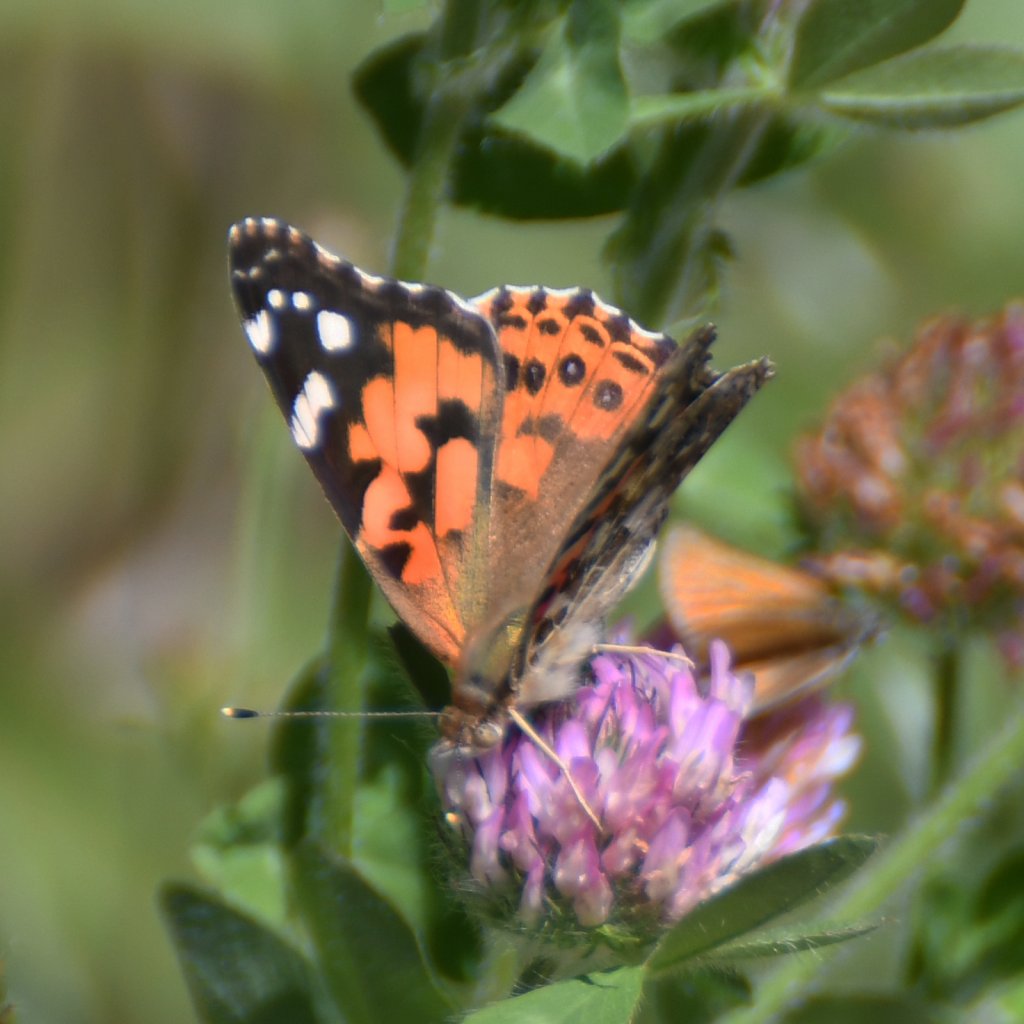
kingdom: Animalia
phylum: Arthropoda
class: Insecta
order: Lepidoptera
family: Nymphalidae
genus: Vanessa
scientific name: Vanessa cardui
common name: Painted Lady
